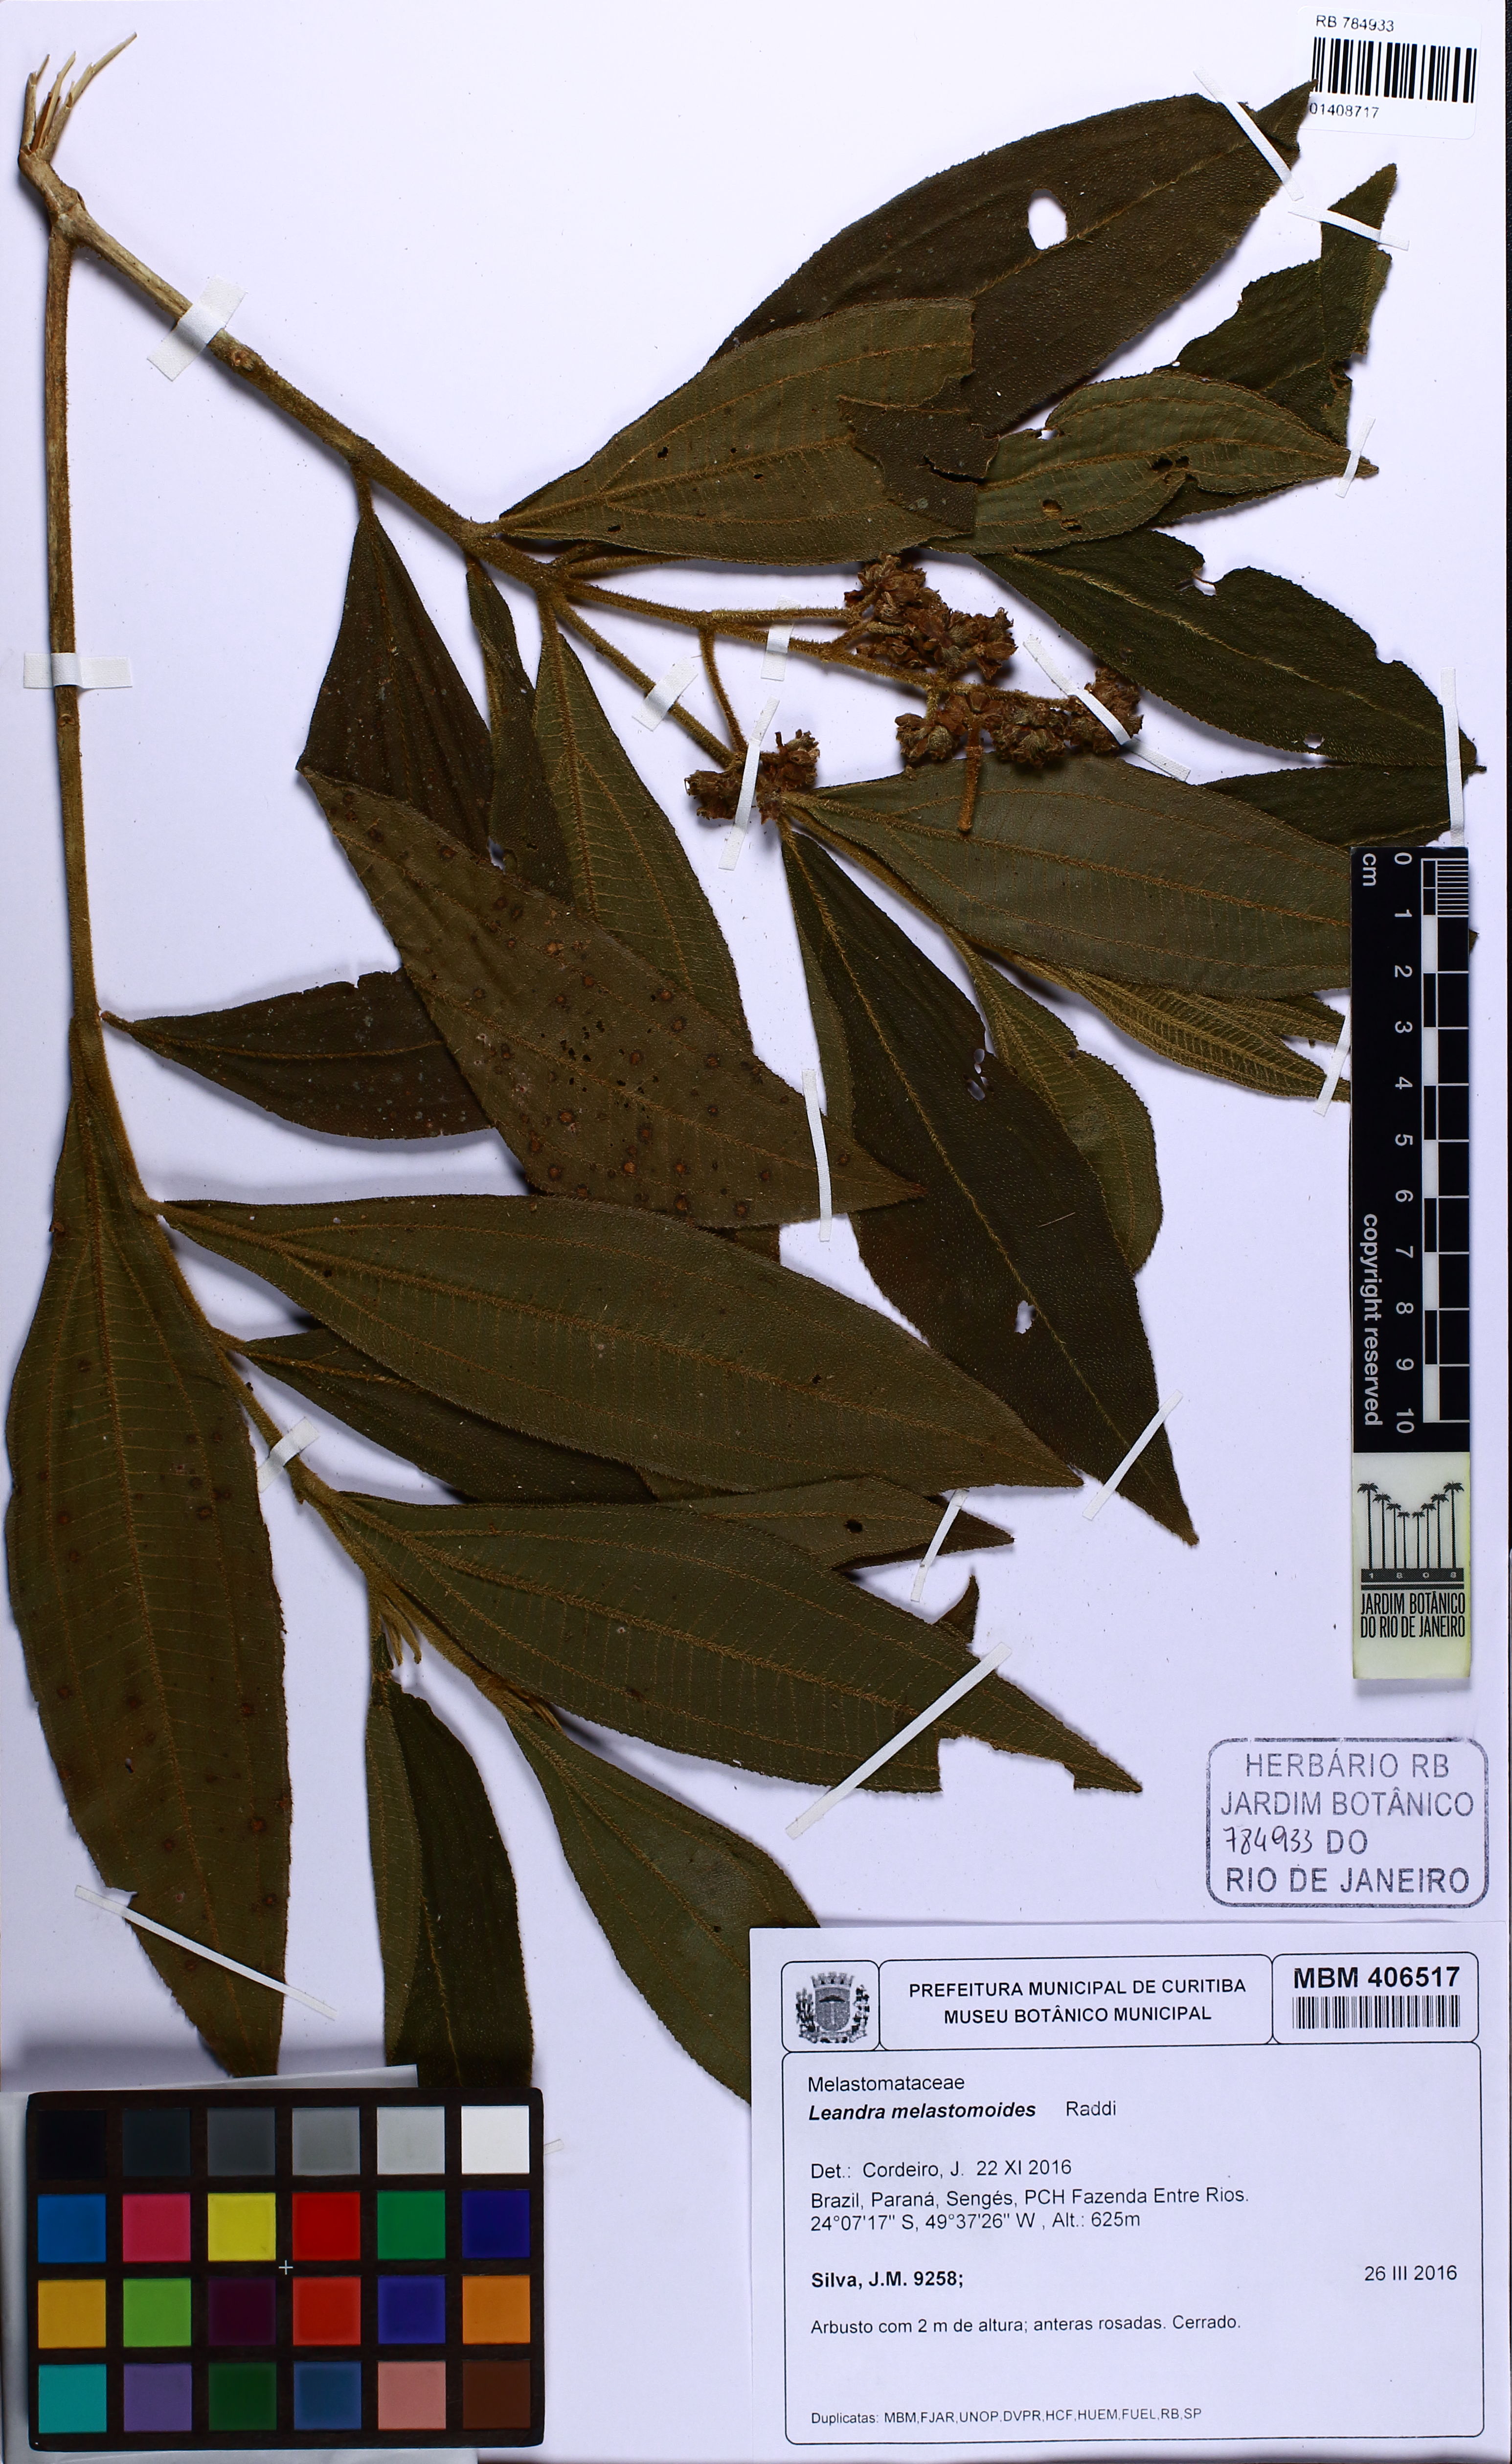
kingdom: Plantae
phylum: Tracheophyta
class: Magnoliopsida
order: Myrtales
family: Melastomataceae
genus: Miconia
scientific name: Miconia melastomoides
